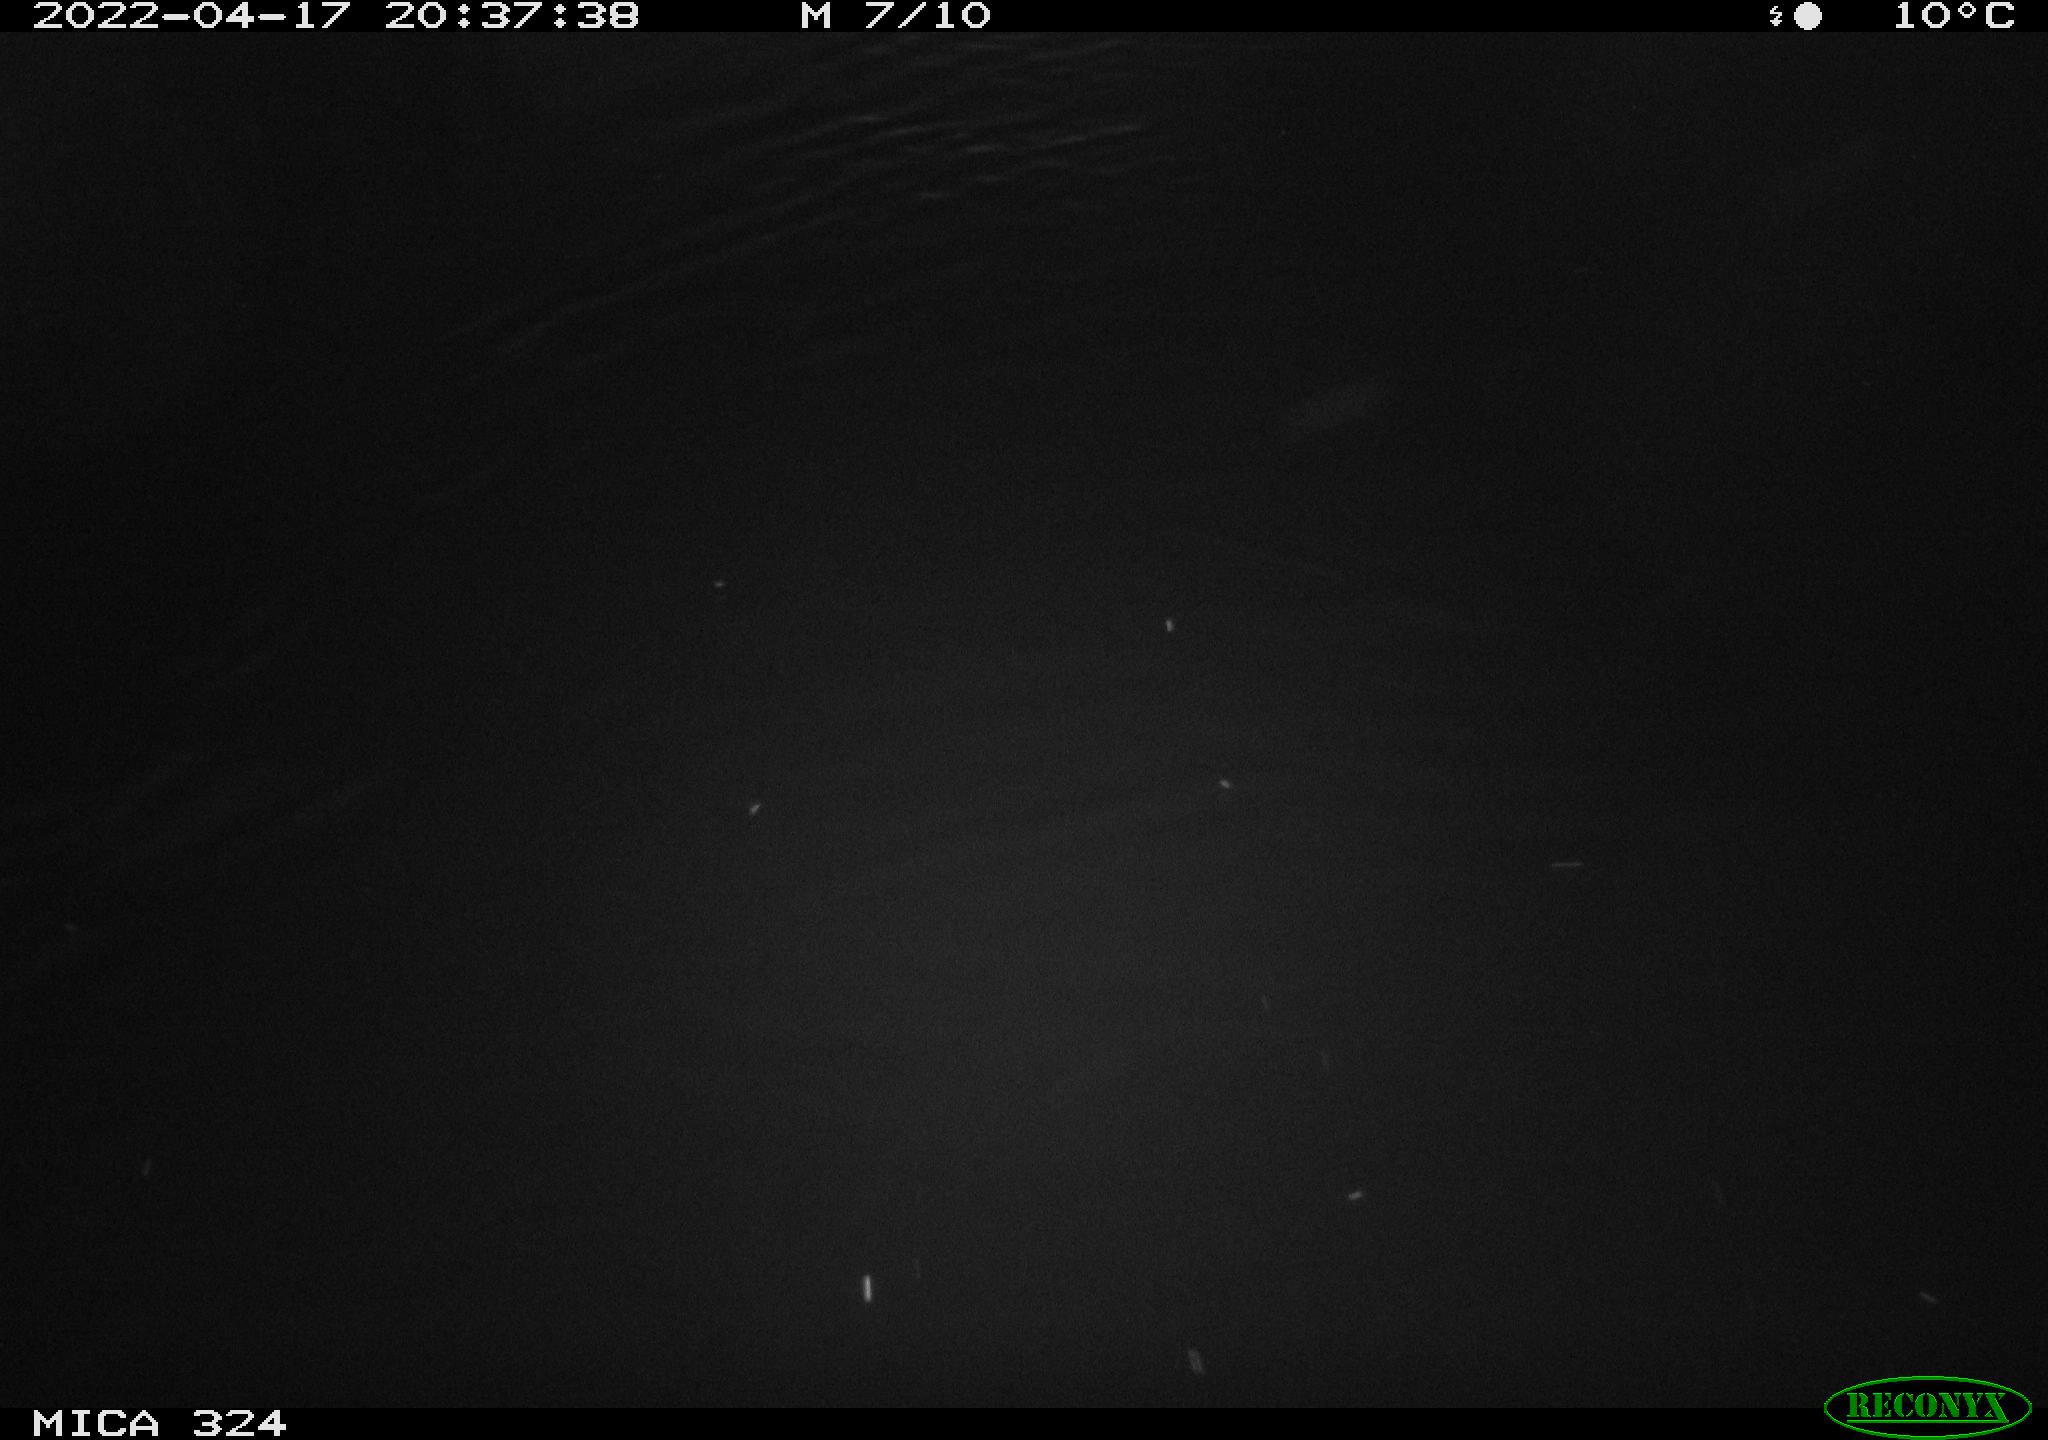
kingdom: Animalia
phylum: Chordata
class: Mammalia
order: Rodentia
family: Cricetidae
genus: Ondatra
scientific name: Ondatra zibethicus
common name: Muskrat
